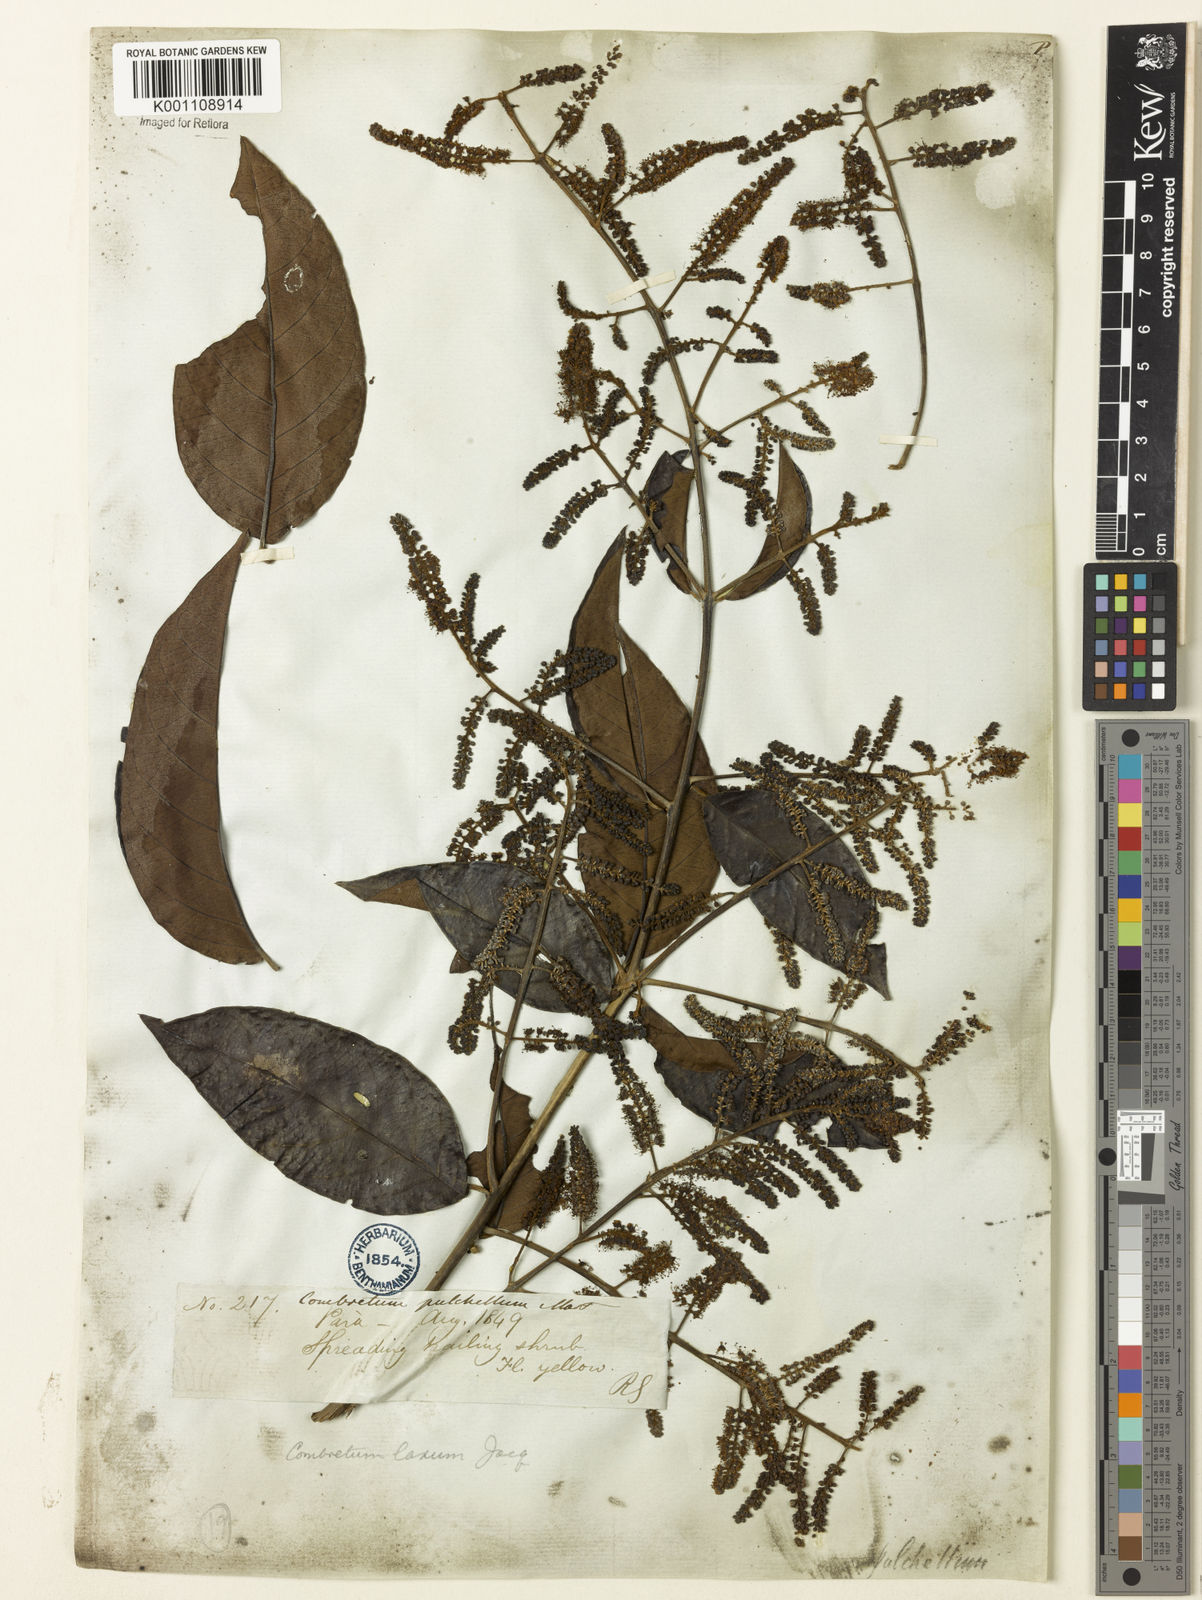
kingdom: Plantae
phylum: Tracheophyta
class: Magnoliopsida
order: Myrtales
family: Combretaceae
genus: Combretum
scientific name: Combretum laxum
